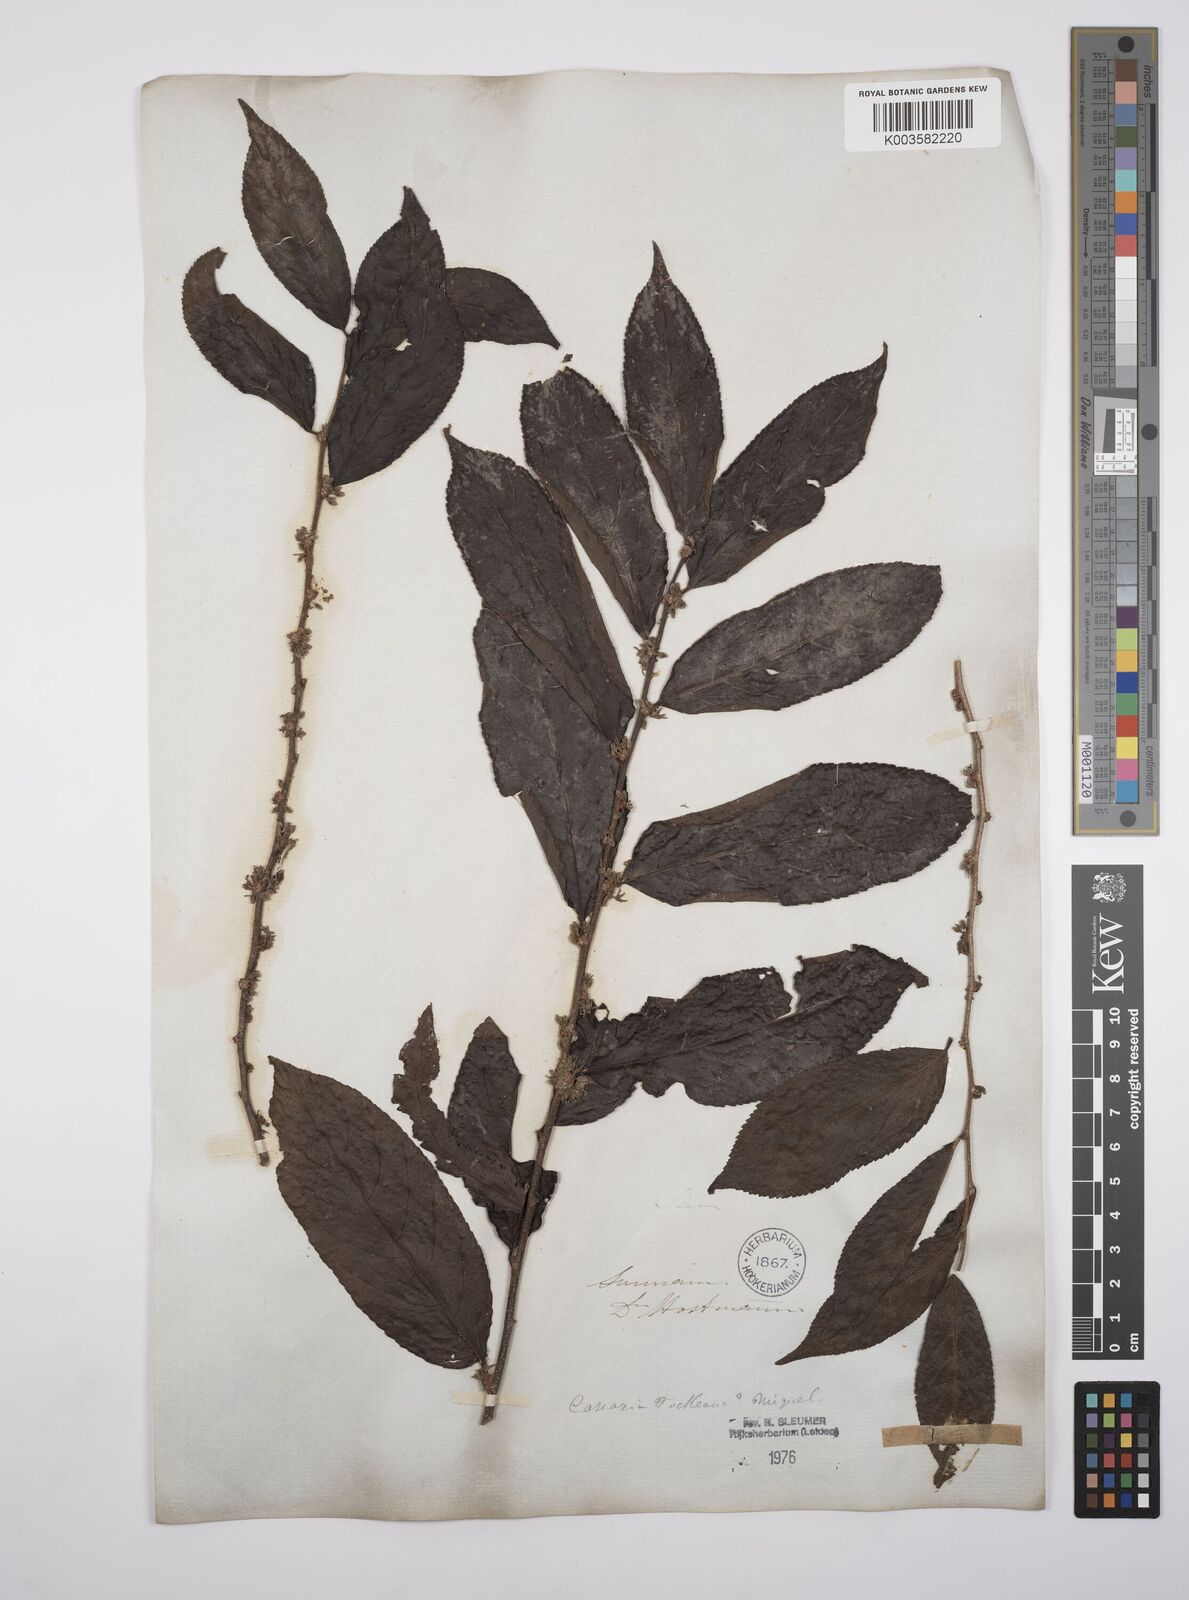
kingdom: Plantae
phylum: Tracheophyta
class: Magnoliopsida
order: Malpighiales
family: Salicaceae
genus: Casearia
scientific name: Casearia mariquitensis
